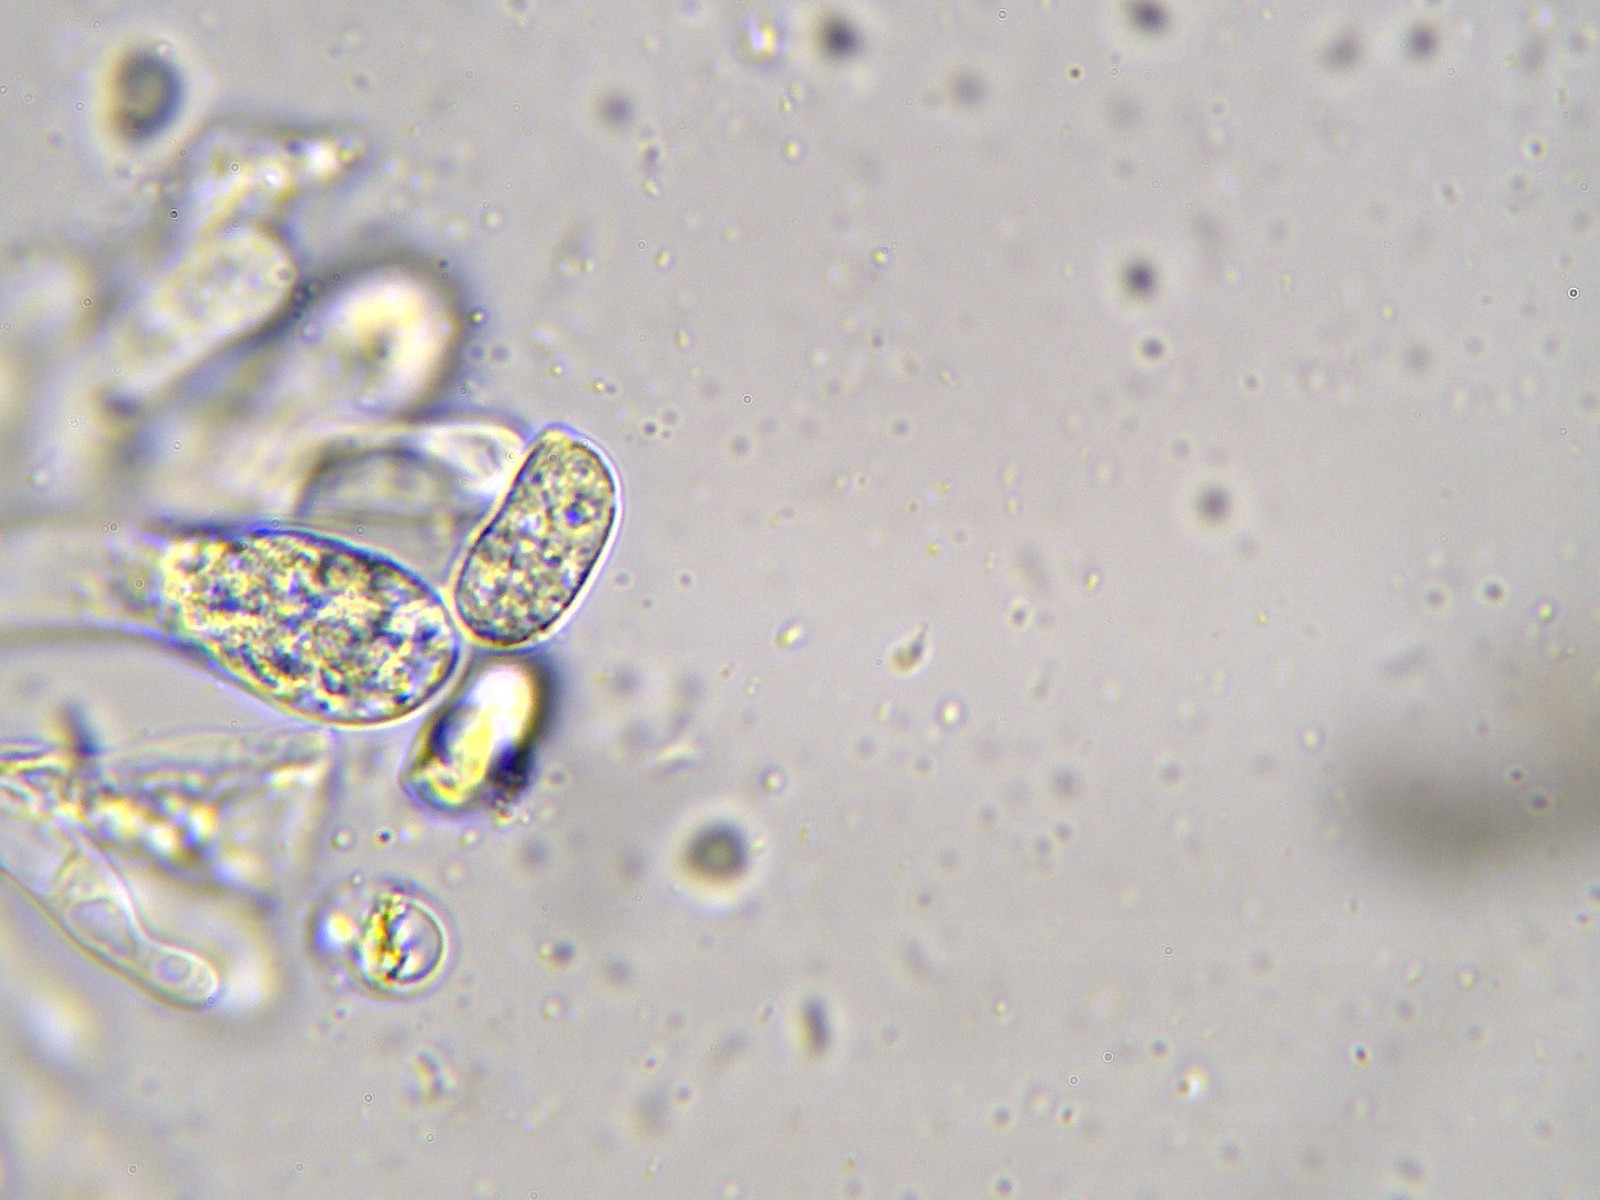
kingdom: Fungi
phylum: Basidiomycota
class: Agaricomycetes
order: Agaricales
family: Hygrophoraceae
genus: Hygrocybe
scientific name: Hygrocybe acutoconica
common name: spidspuklet vokshat
